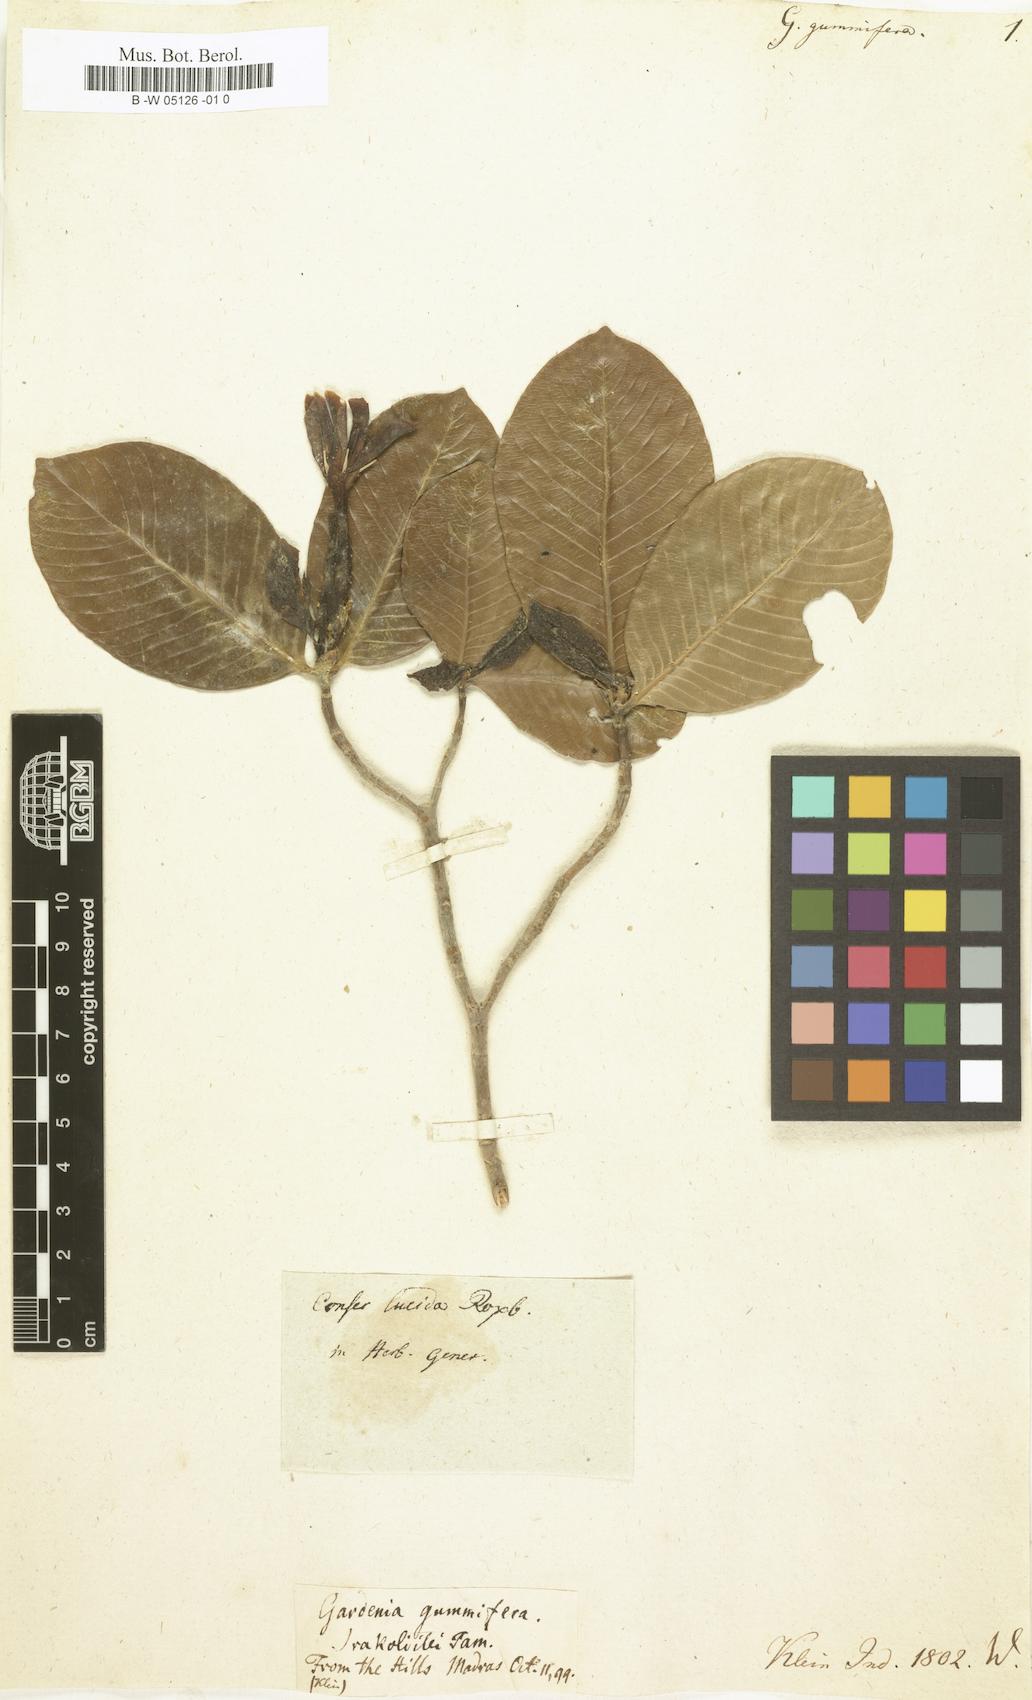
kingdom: Plantae
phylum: Tracheophyta
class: Magnoliopsida
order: Gentianales
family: Rubiaceae
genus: Gardenia
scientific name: Gardenia gummifera
